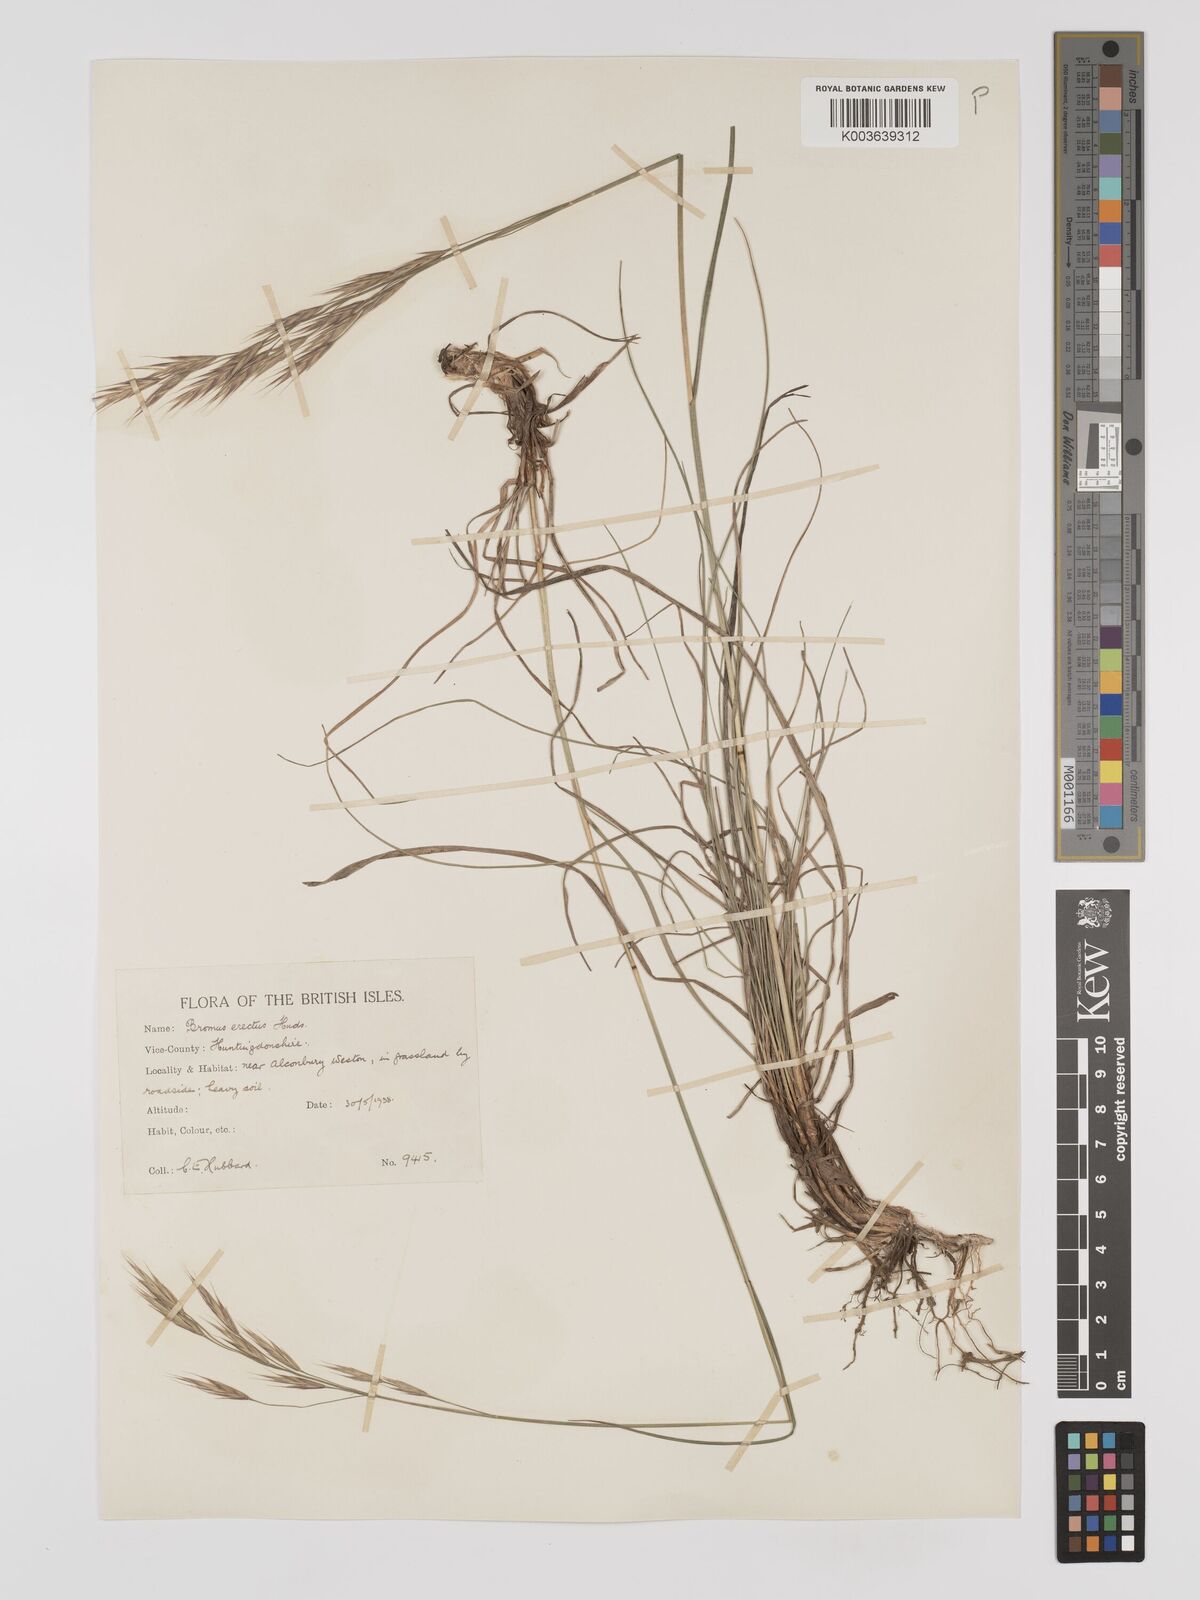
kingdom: Plantae
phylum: Tracheophyta
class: Liliopsida
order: Poales
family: Poaceae
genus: Bromus
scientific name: Bromus erectus
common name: Erect brome
